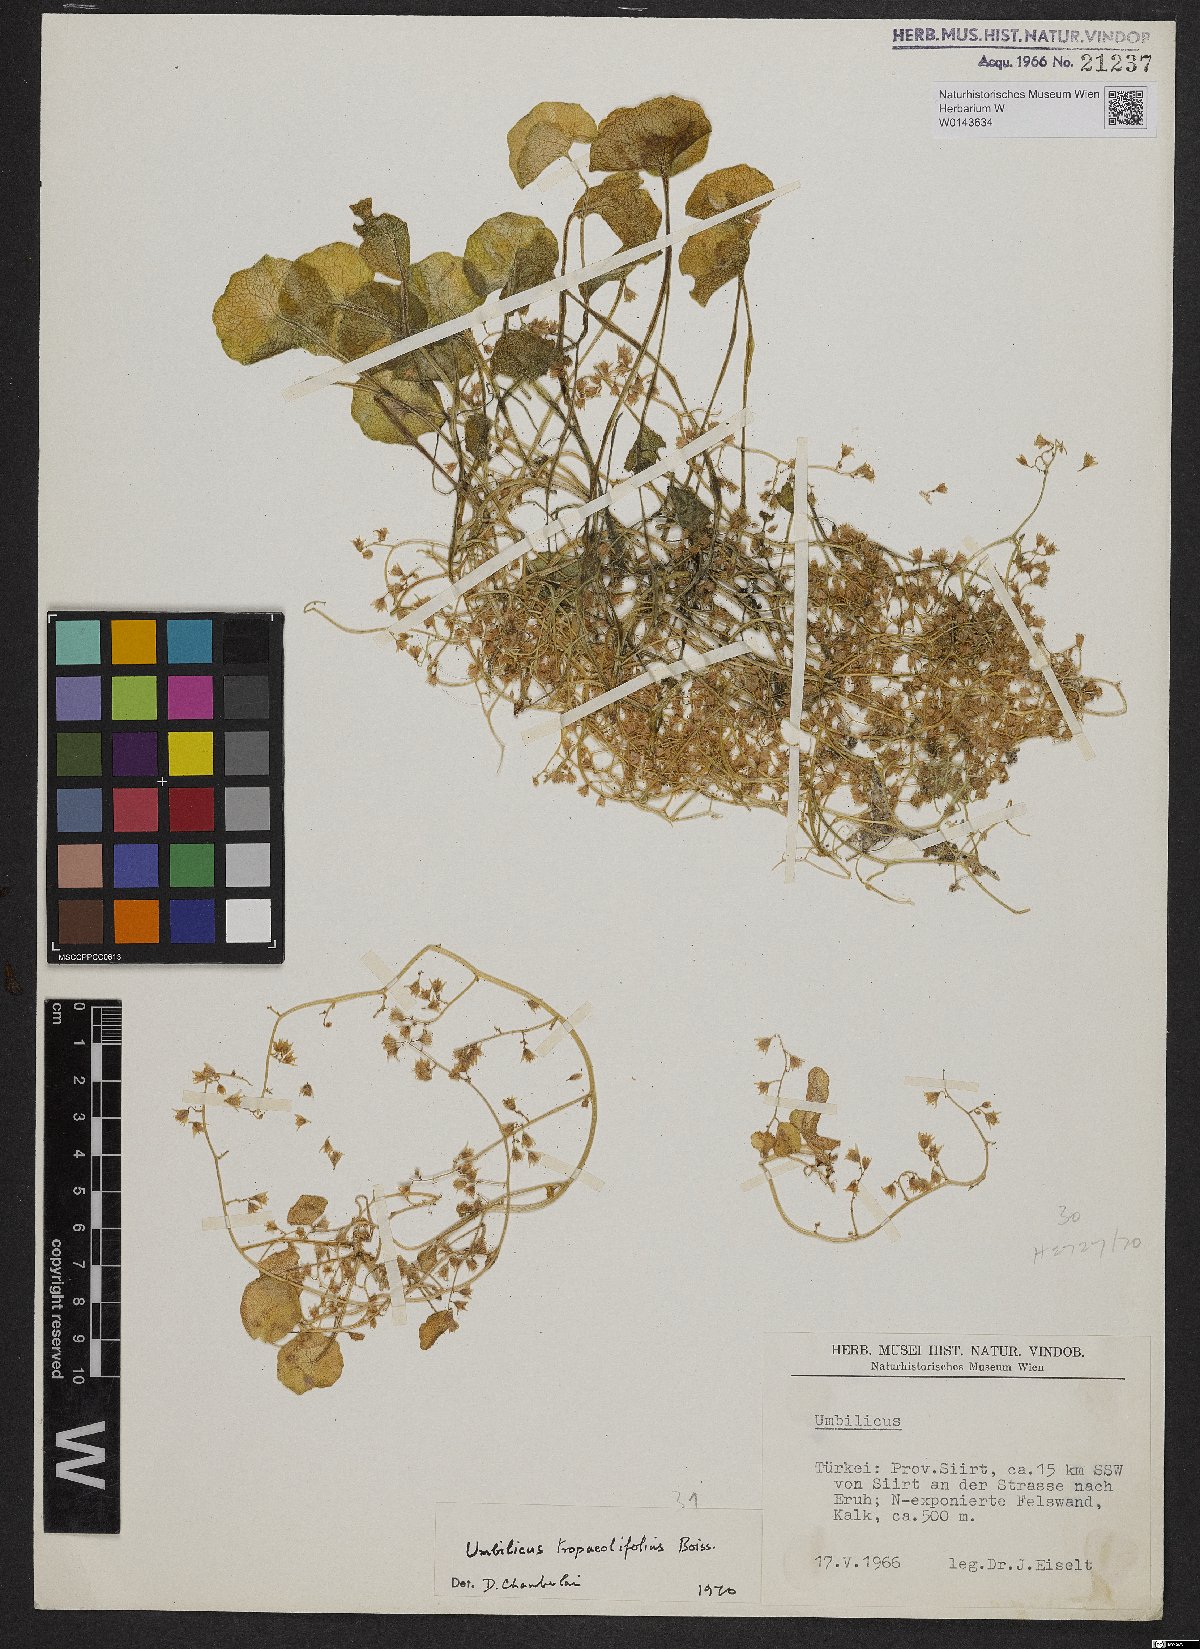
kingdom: Plantae
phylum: Tracheophyta
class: Magnoliopsida
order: Saxifragales
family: Crassulaceae
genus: Umbilicus
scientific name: Umbilicus tropaeolifolius
